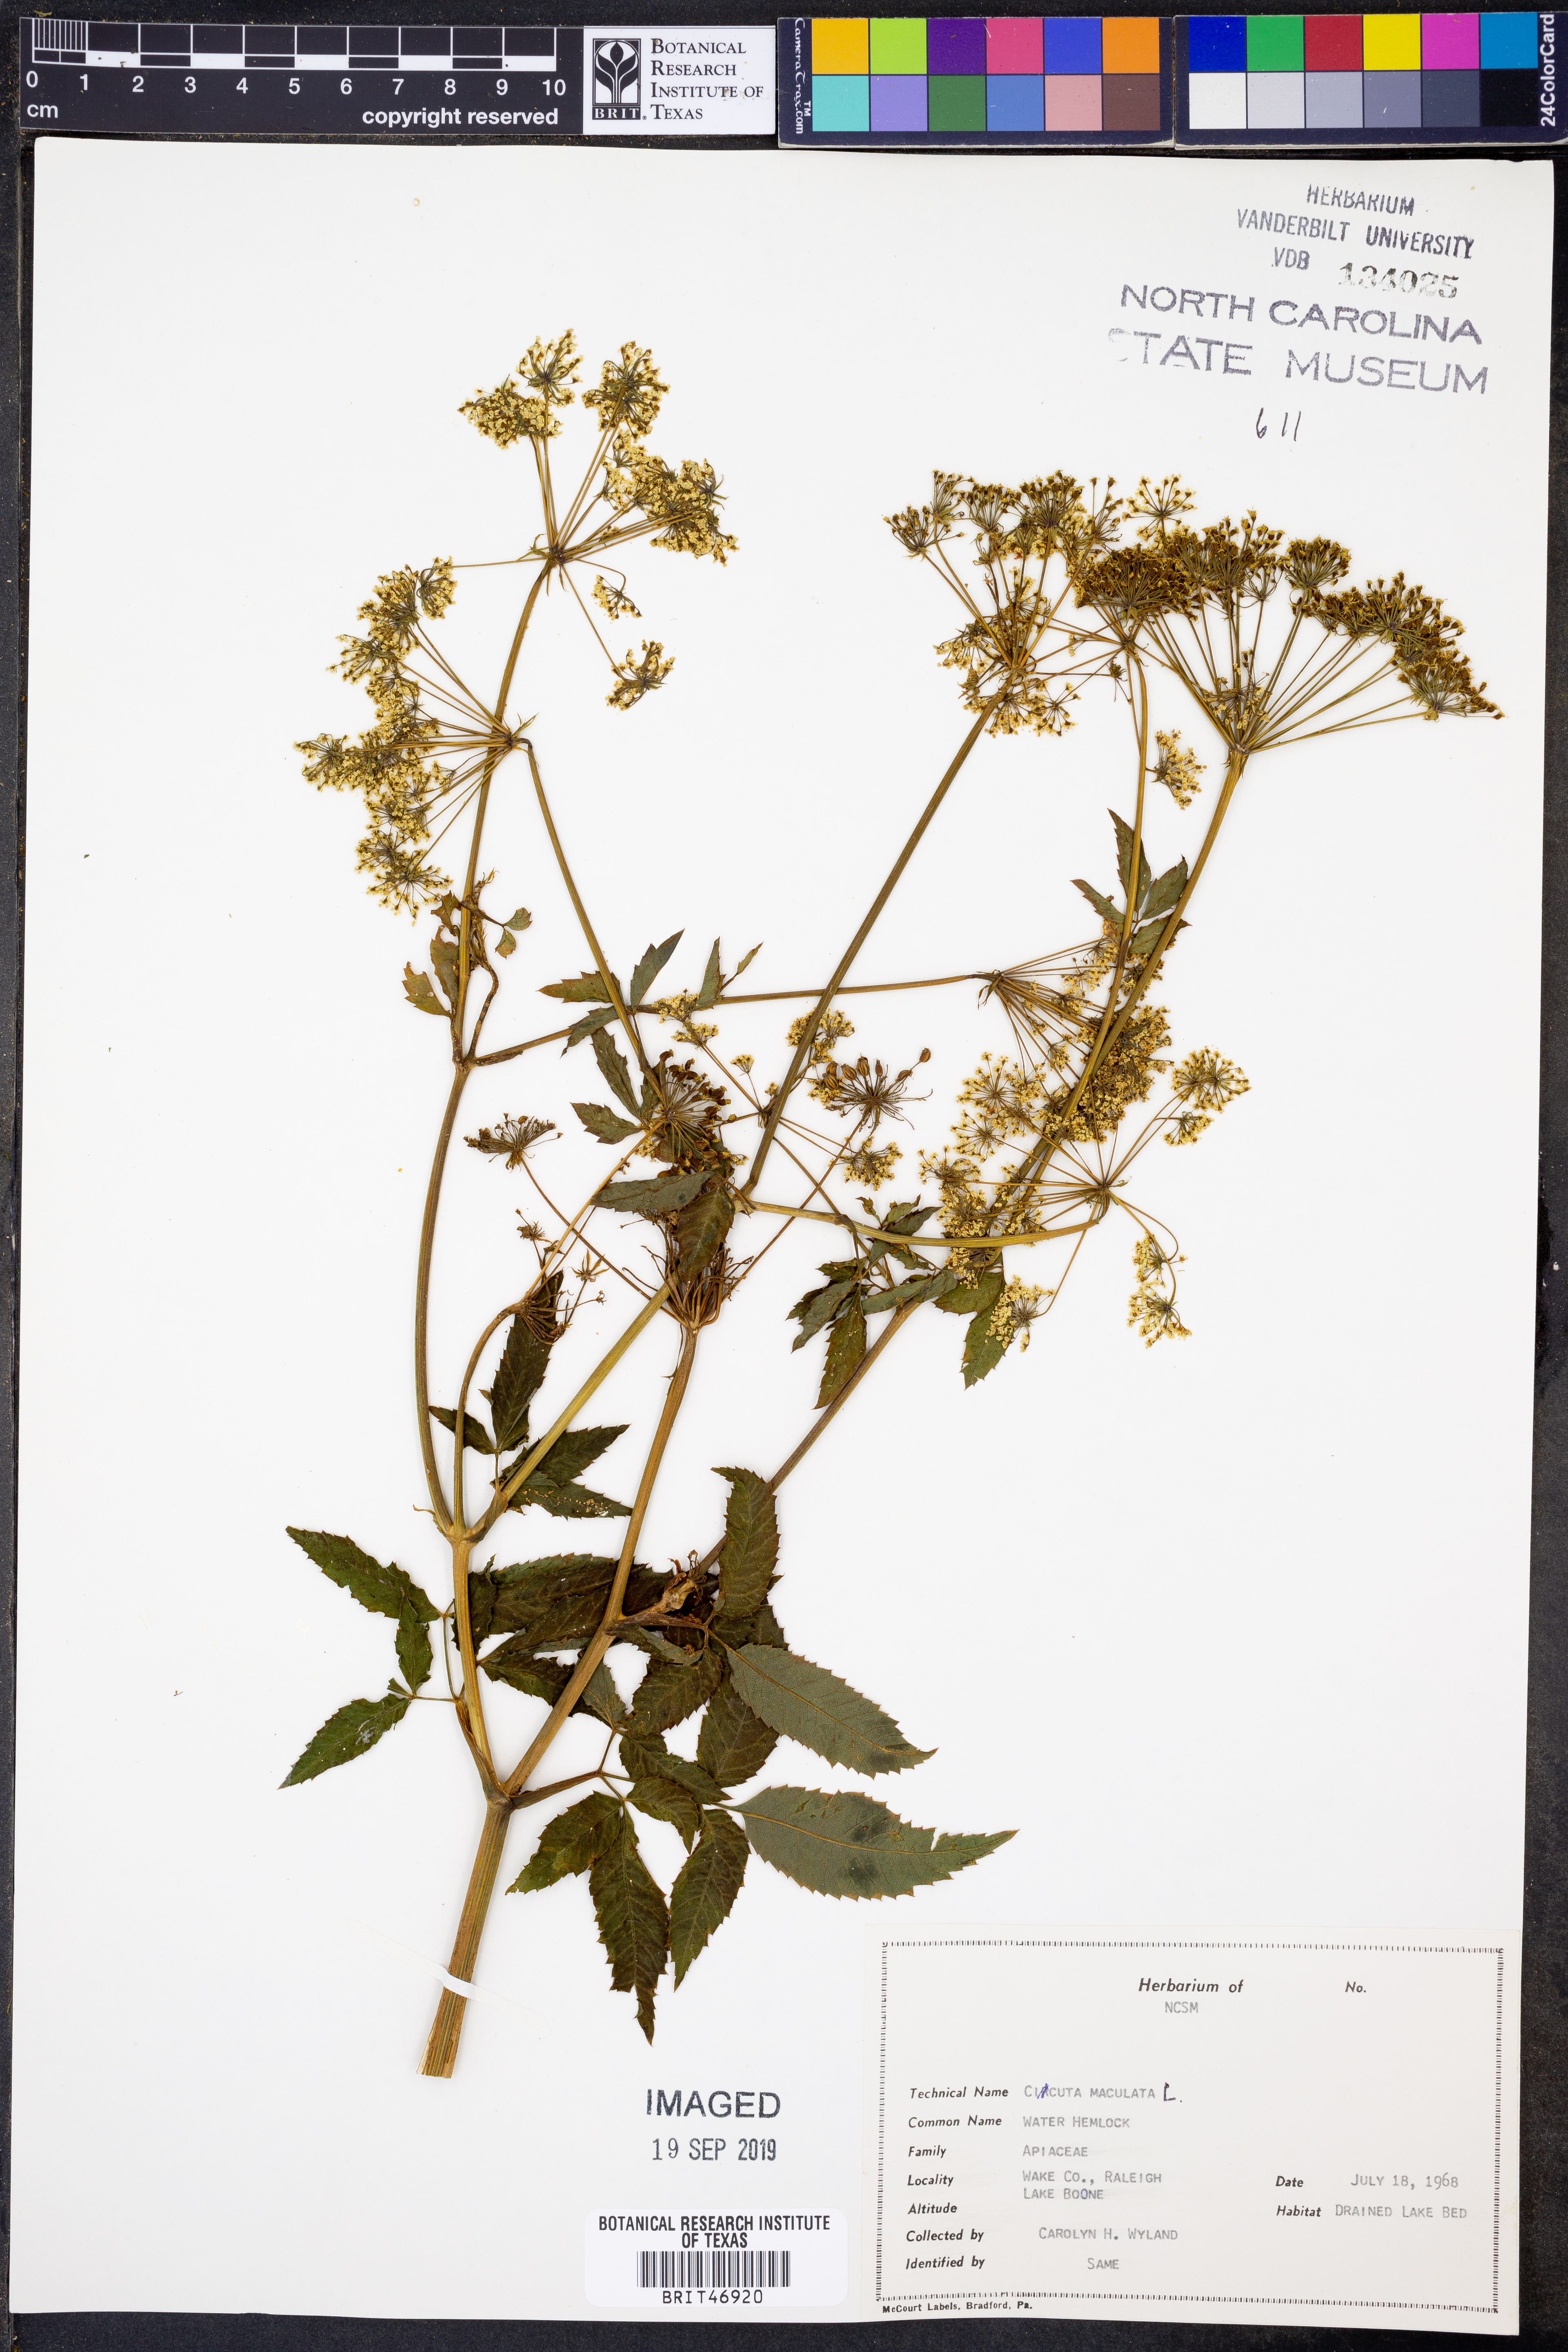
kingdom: Plantae
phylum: Tracheophyta
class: Magnoliopsida
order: Apiales
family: Apiaceae
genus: Cicuta
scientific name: Cicuta maculata
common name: Spotted cowbane
